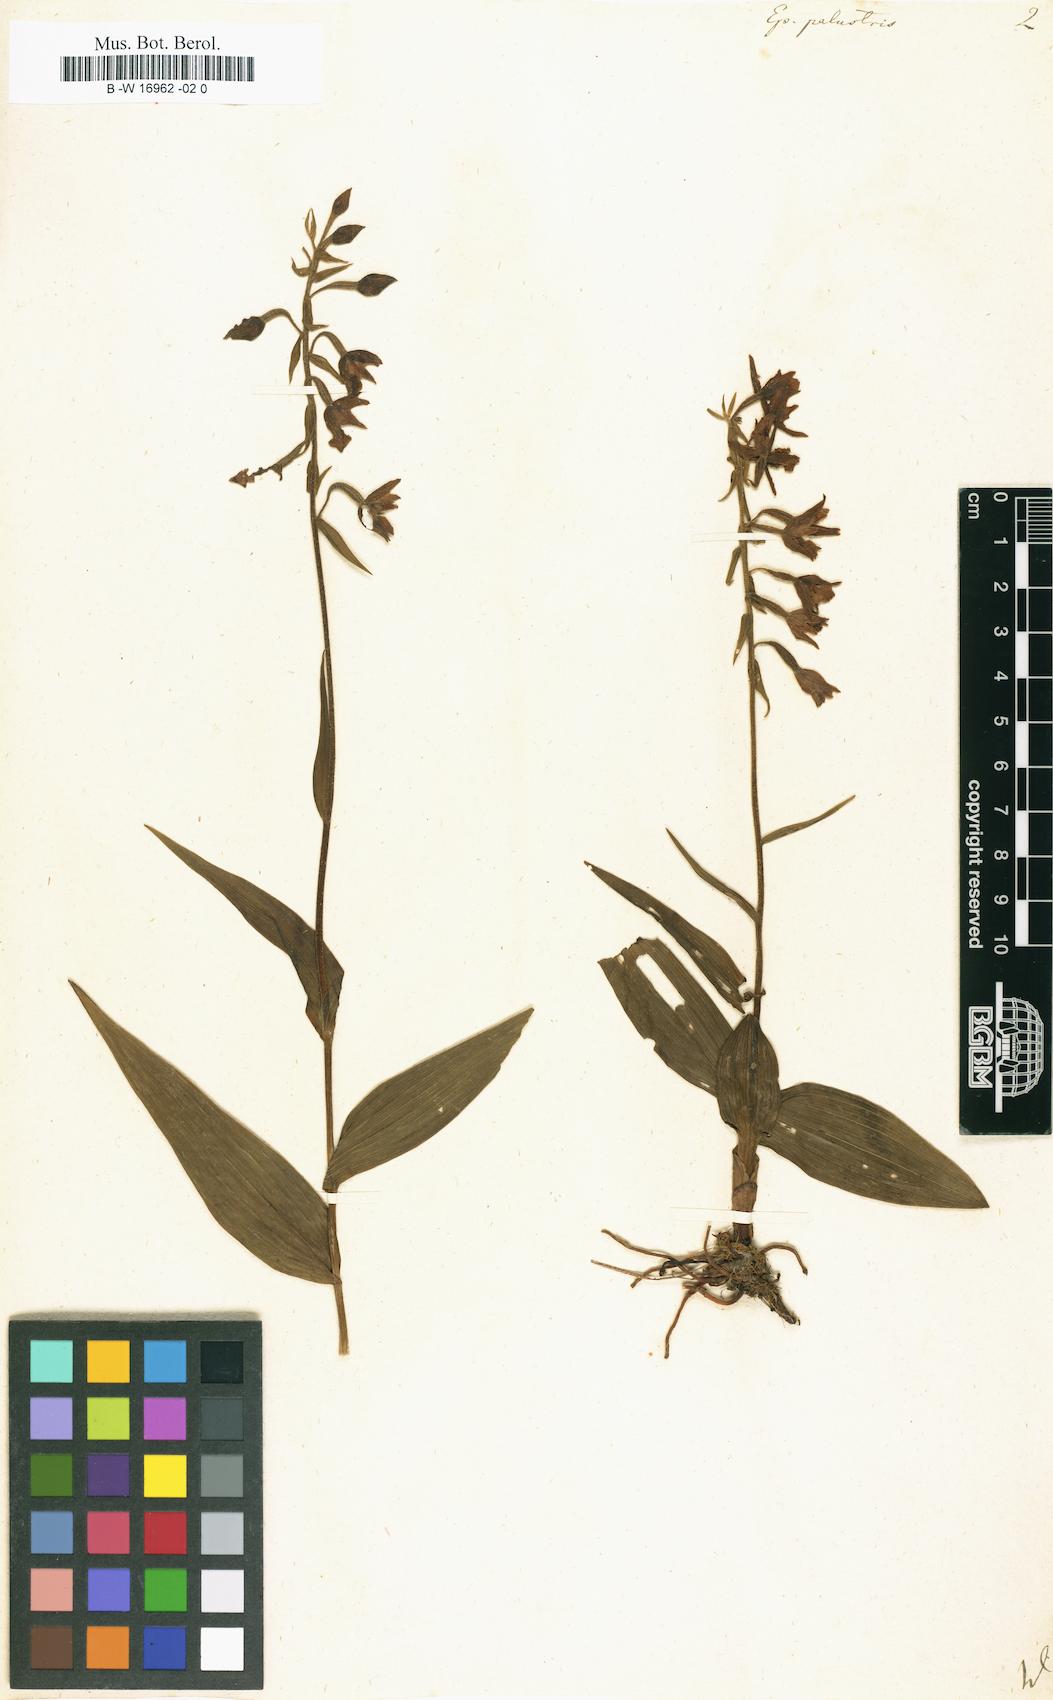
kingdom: Plantae
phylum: Tracheophyta
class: Liliopsida
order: Asparagales
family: Orchidaceae
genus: Epipactis
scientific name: Epipactis palustris
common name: Marsh helleborine
